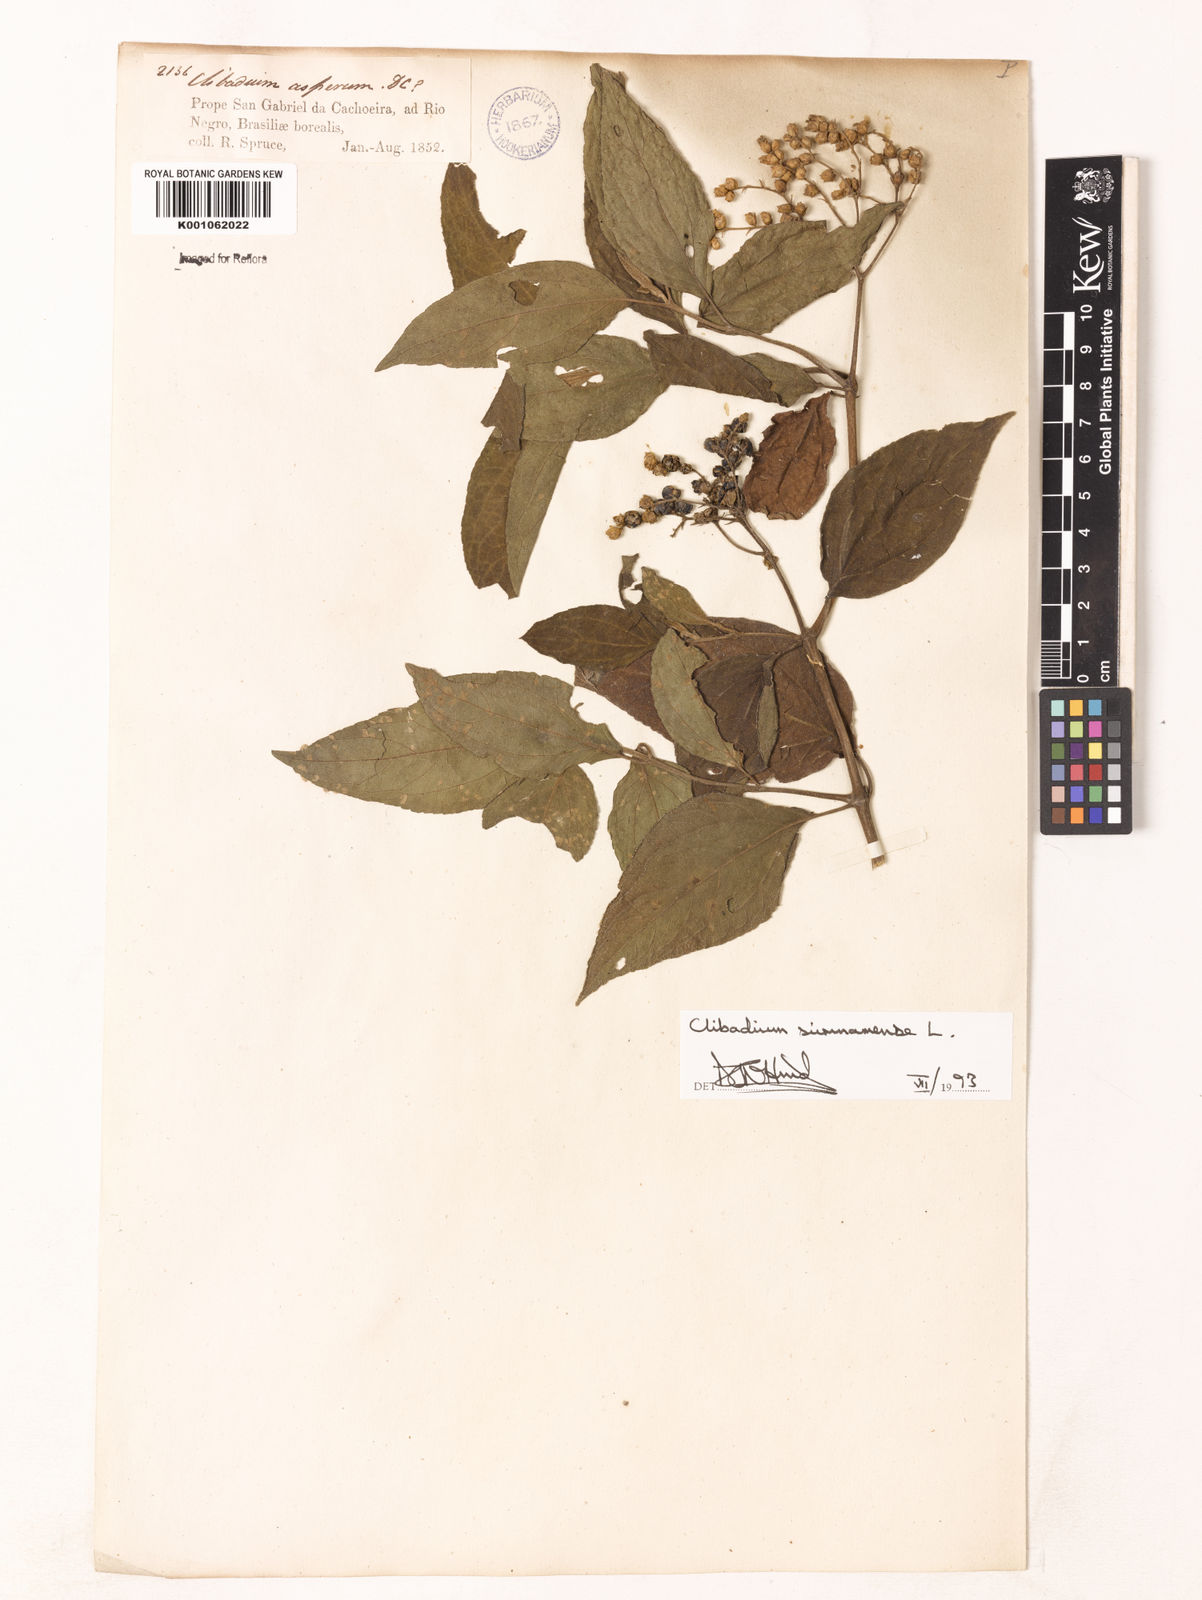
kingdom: Plantae
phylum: Tracheophyta
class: Magnoliopsida
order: Asterales
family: Asteraceae
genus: Clibadium
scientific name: Clibadium surinamense
